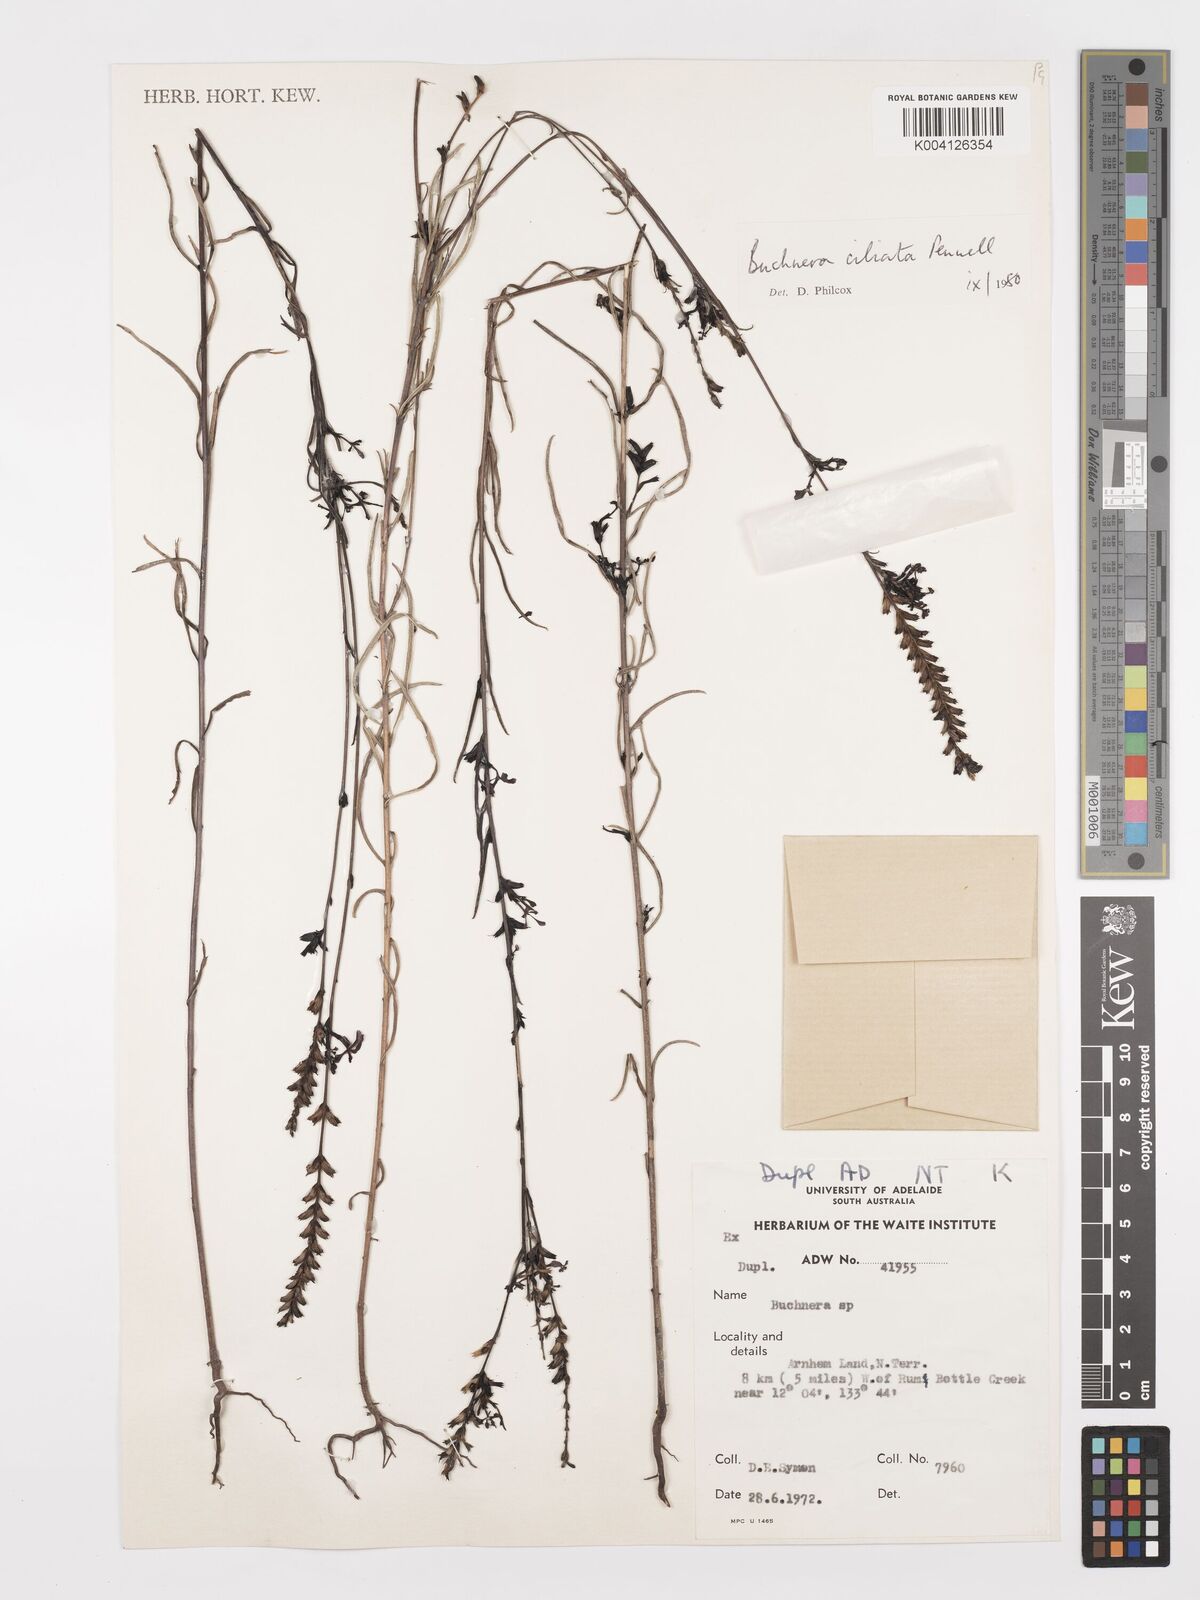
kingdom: Plantae
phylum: Tracheophyta
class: Magnoliopsida
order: Lamiales
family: Orobanchaceae
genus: Buchnera
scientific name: Buchnera ciliata
